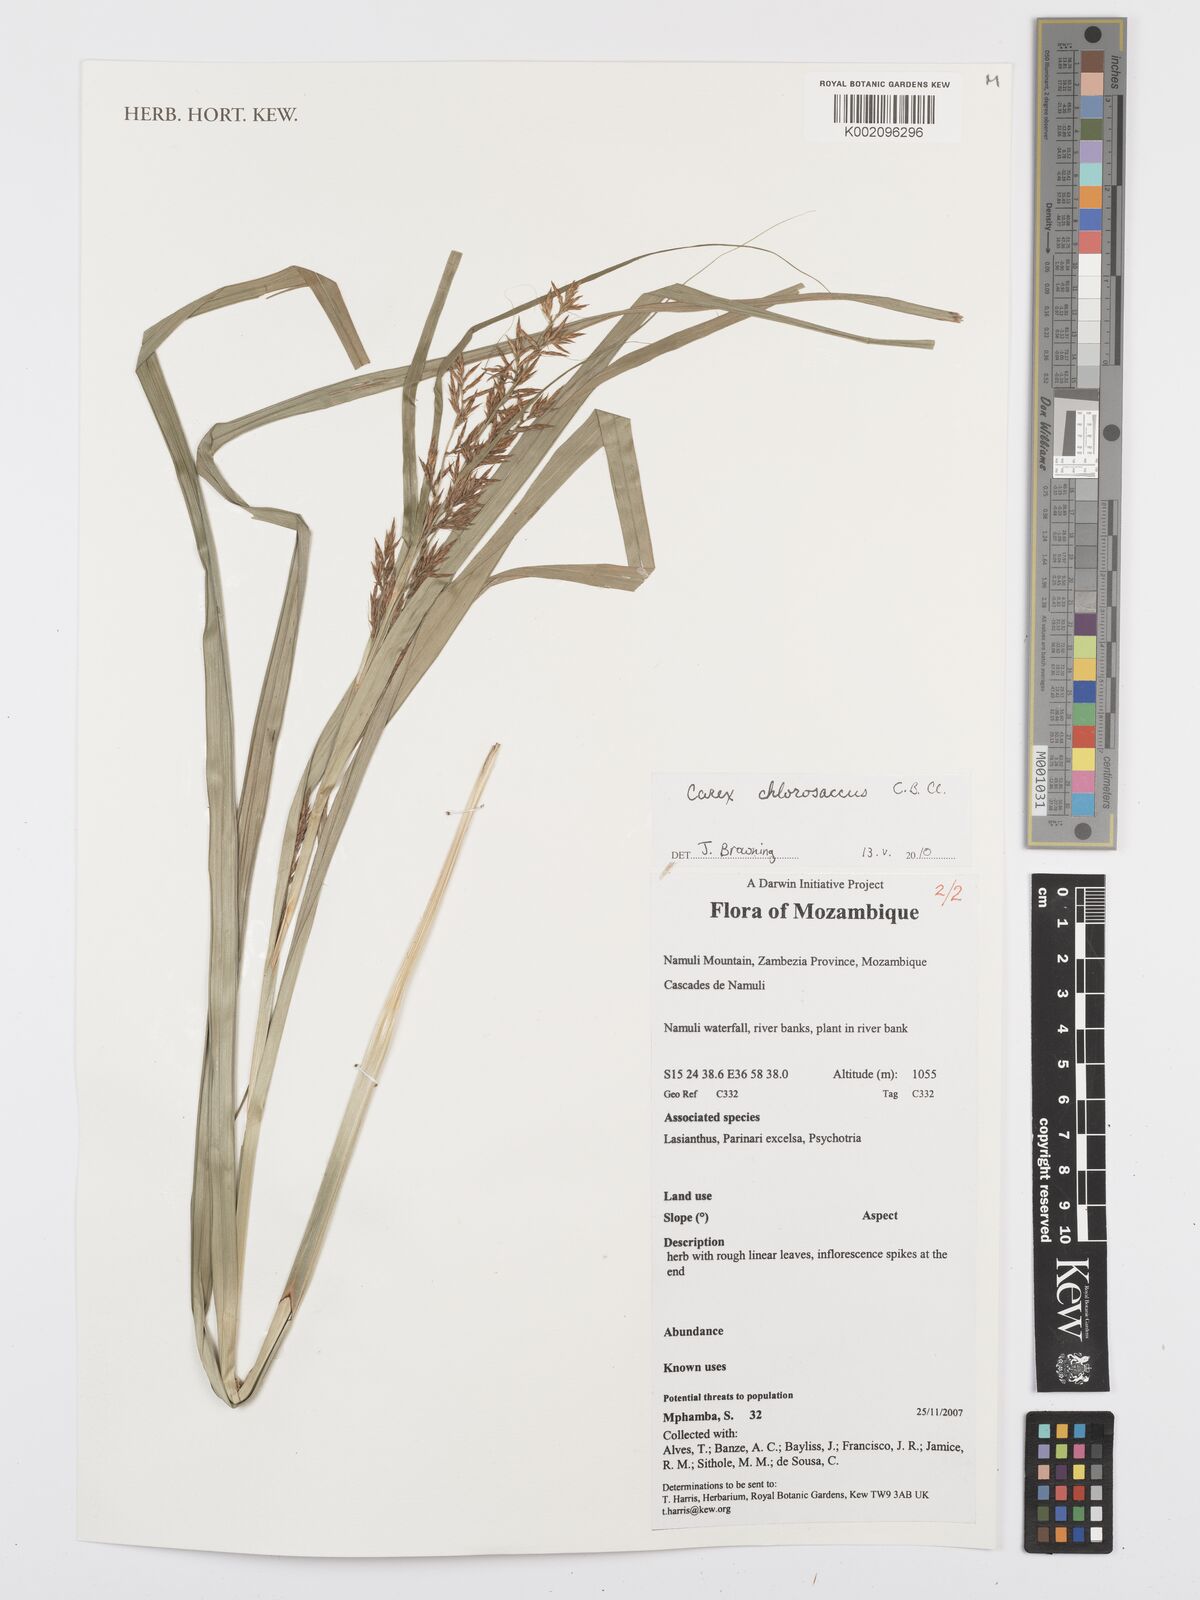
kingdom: Plantae
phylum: Tracheophyta
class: Liliopsida
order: Poales
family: Cyperaceae
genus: Carex
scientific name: Carex chlorosaccus
